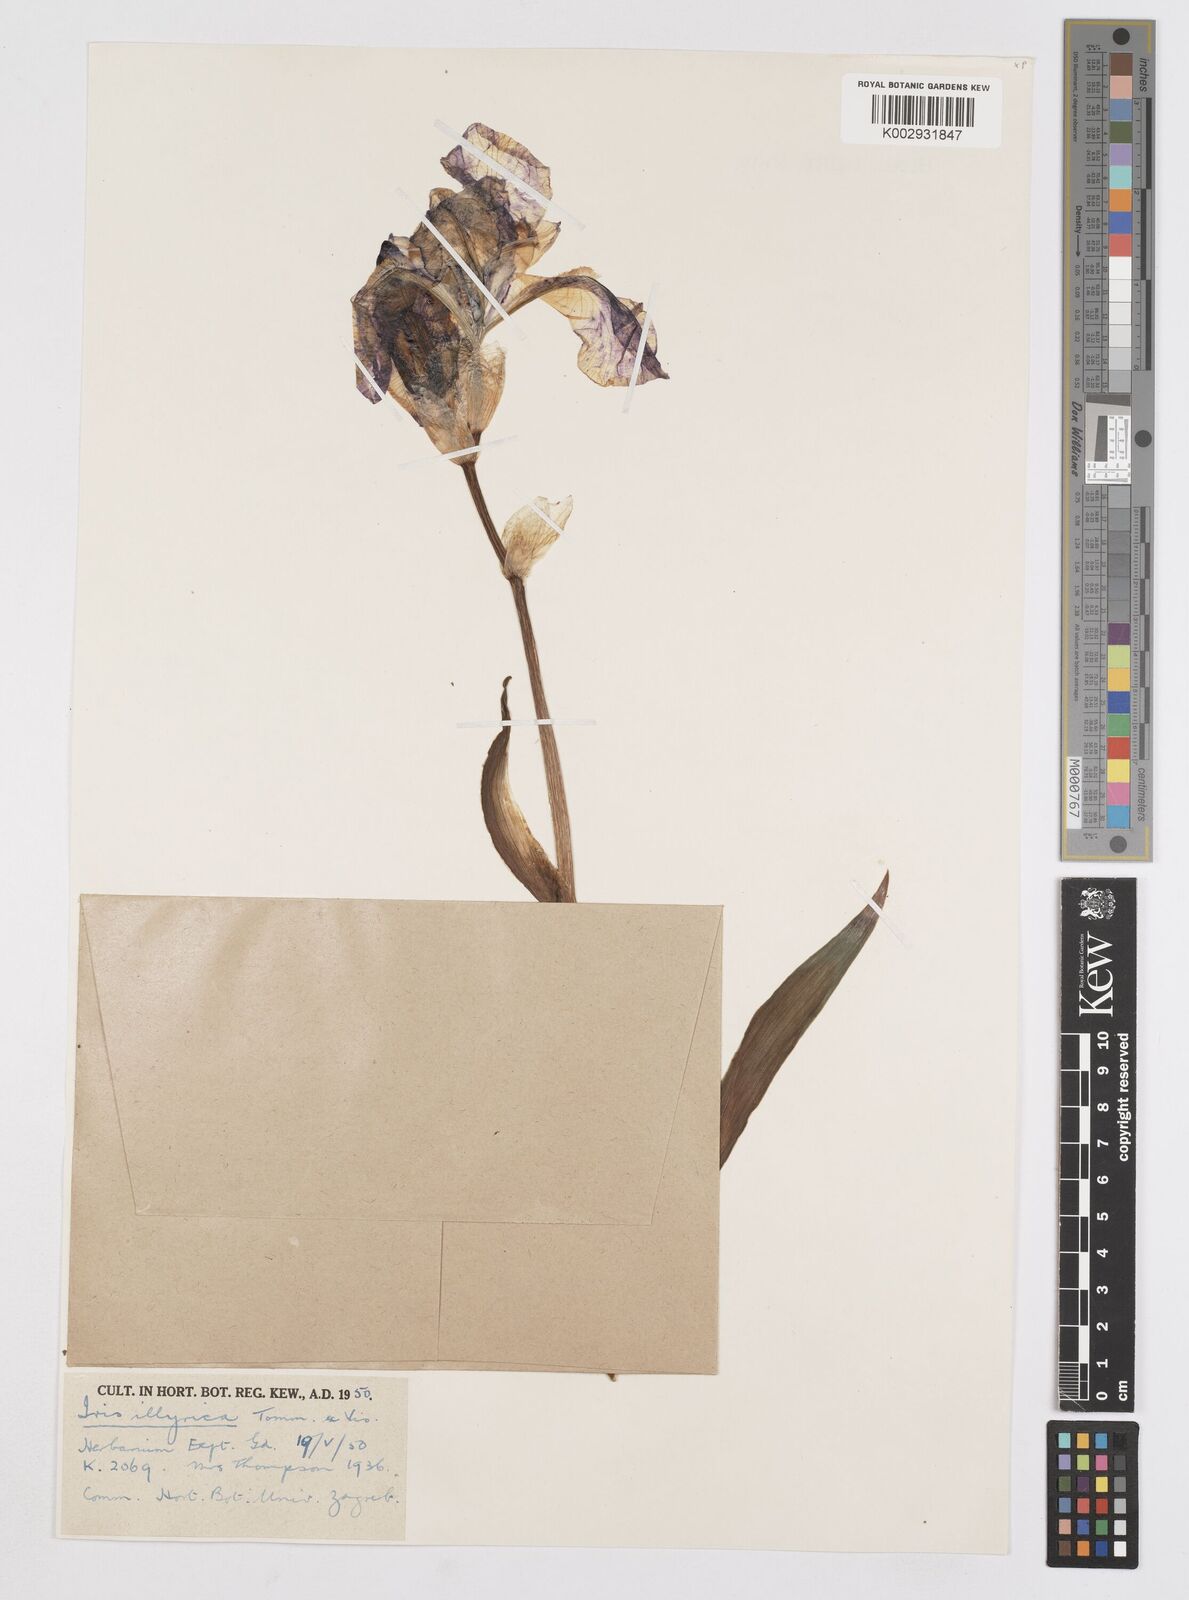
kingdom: Plantae
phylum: Tracheophyta
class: Liliopsida
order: Asparagales
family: Iridaceae
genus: Iris
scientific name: Iris pallida
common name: Sweet iris
